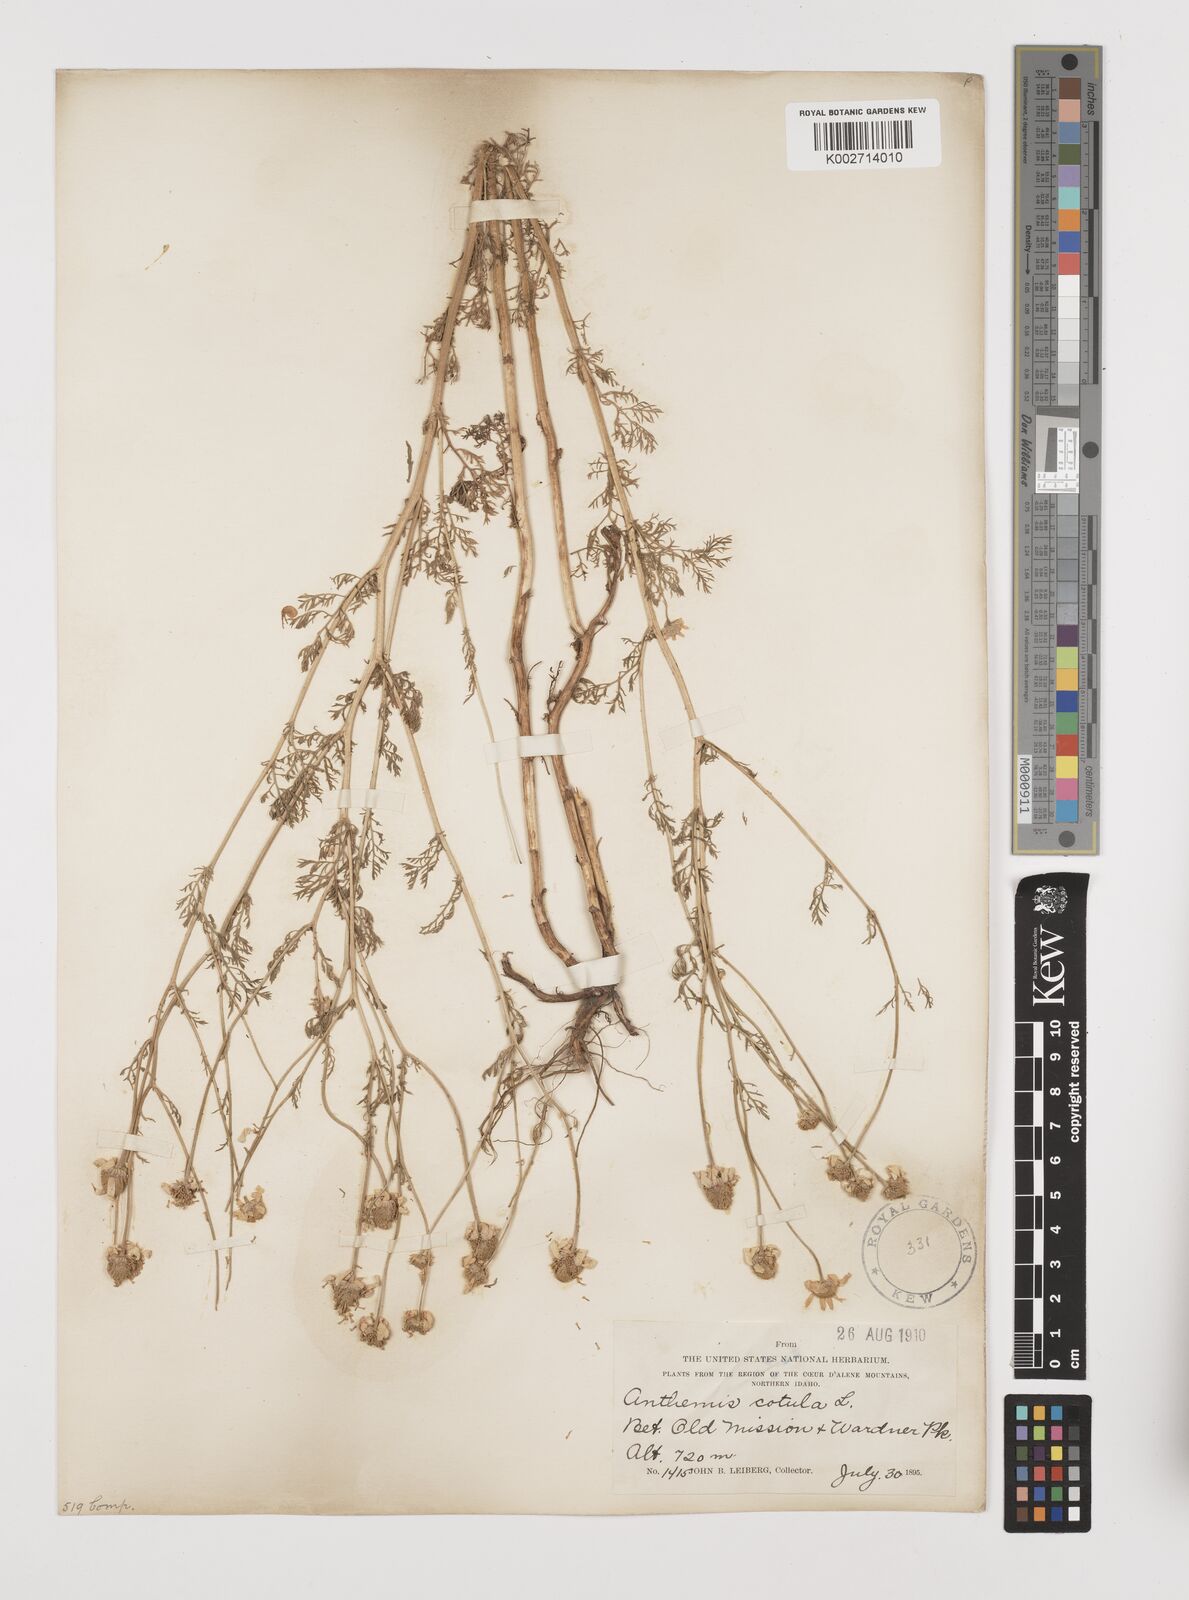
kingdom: Plantae
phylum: Tracheophyta
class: Magnoliopsida
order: Asterales
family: Asteraceae
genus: Anthemis
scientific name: Anthemis cotula
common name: Stinking chamomile
